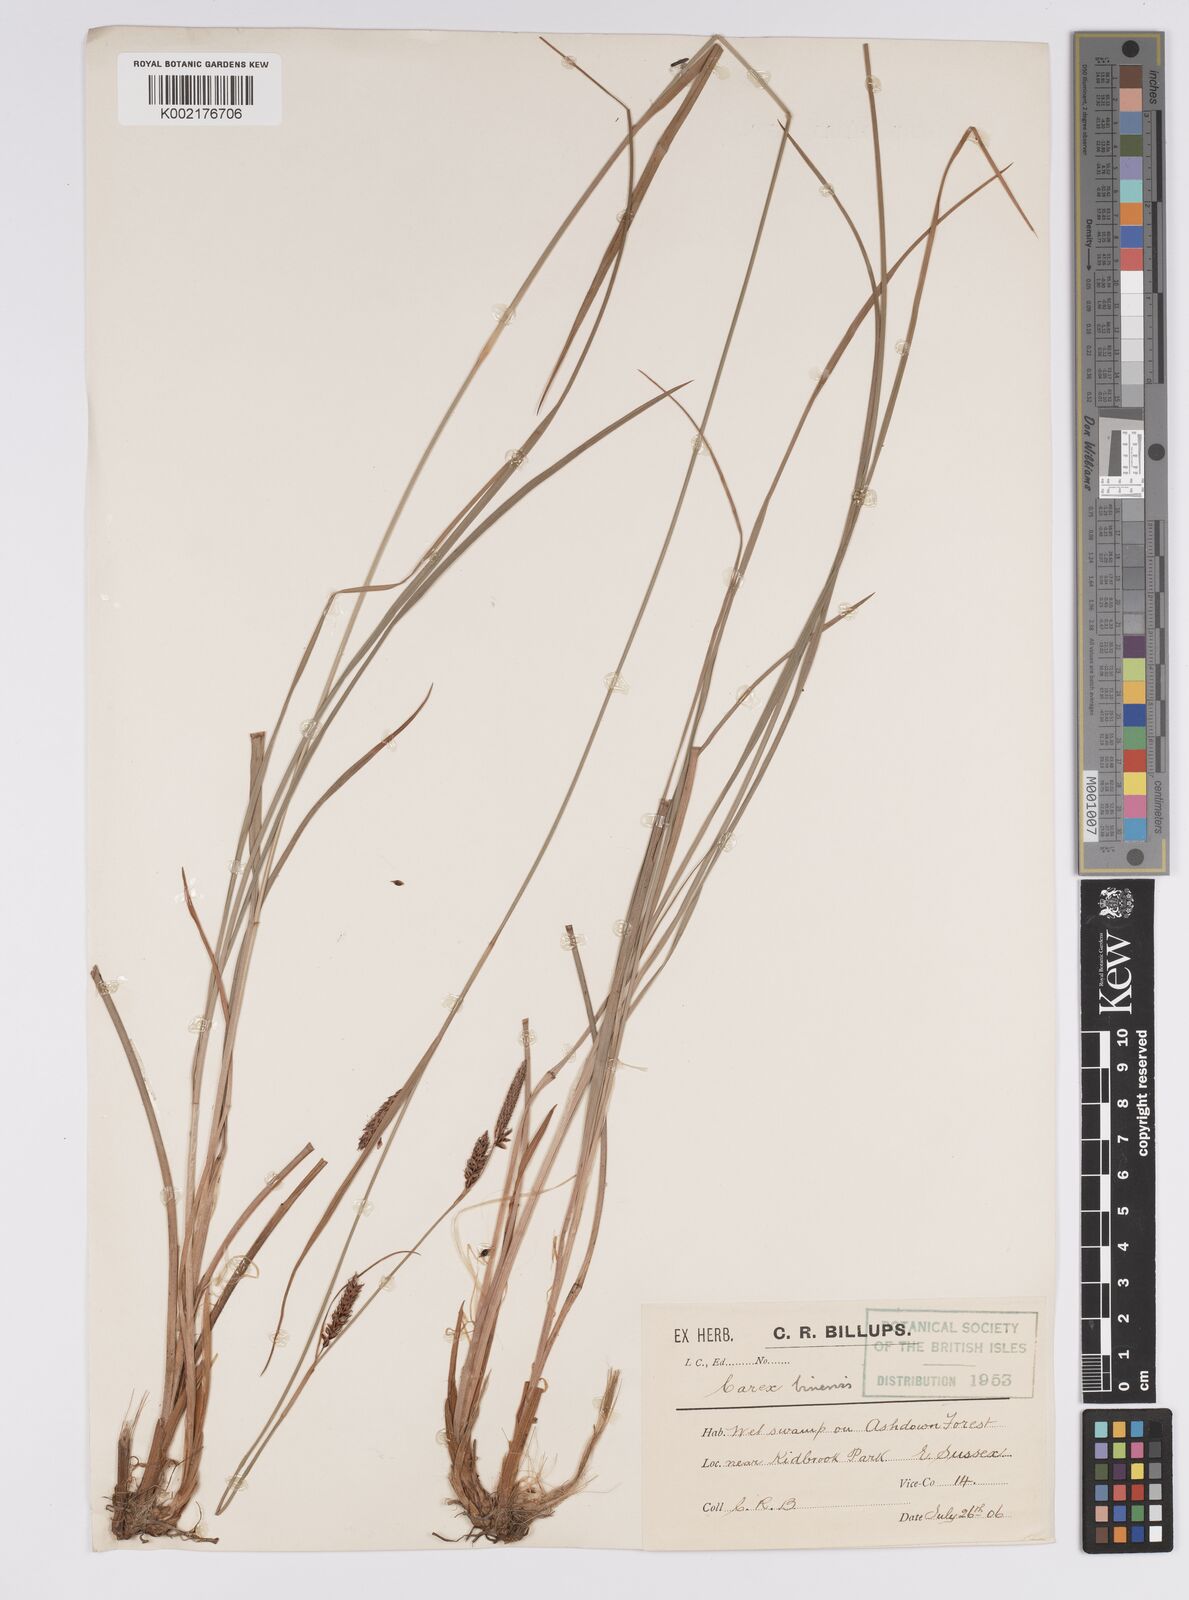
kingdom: Plantae
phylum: Tracheophyta
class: Liliopsida
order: Poales
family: Cyperaceae
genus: Carex
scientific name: Carex binervis
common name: Green-ribbed sedge
